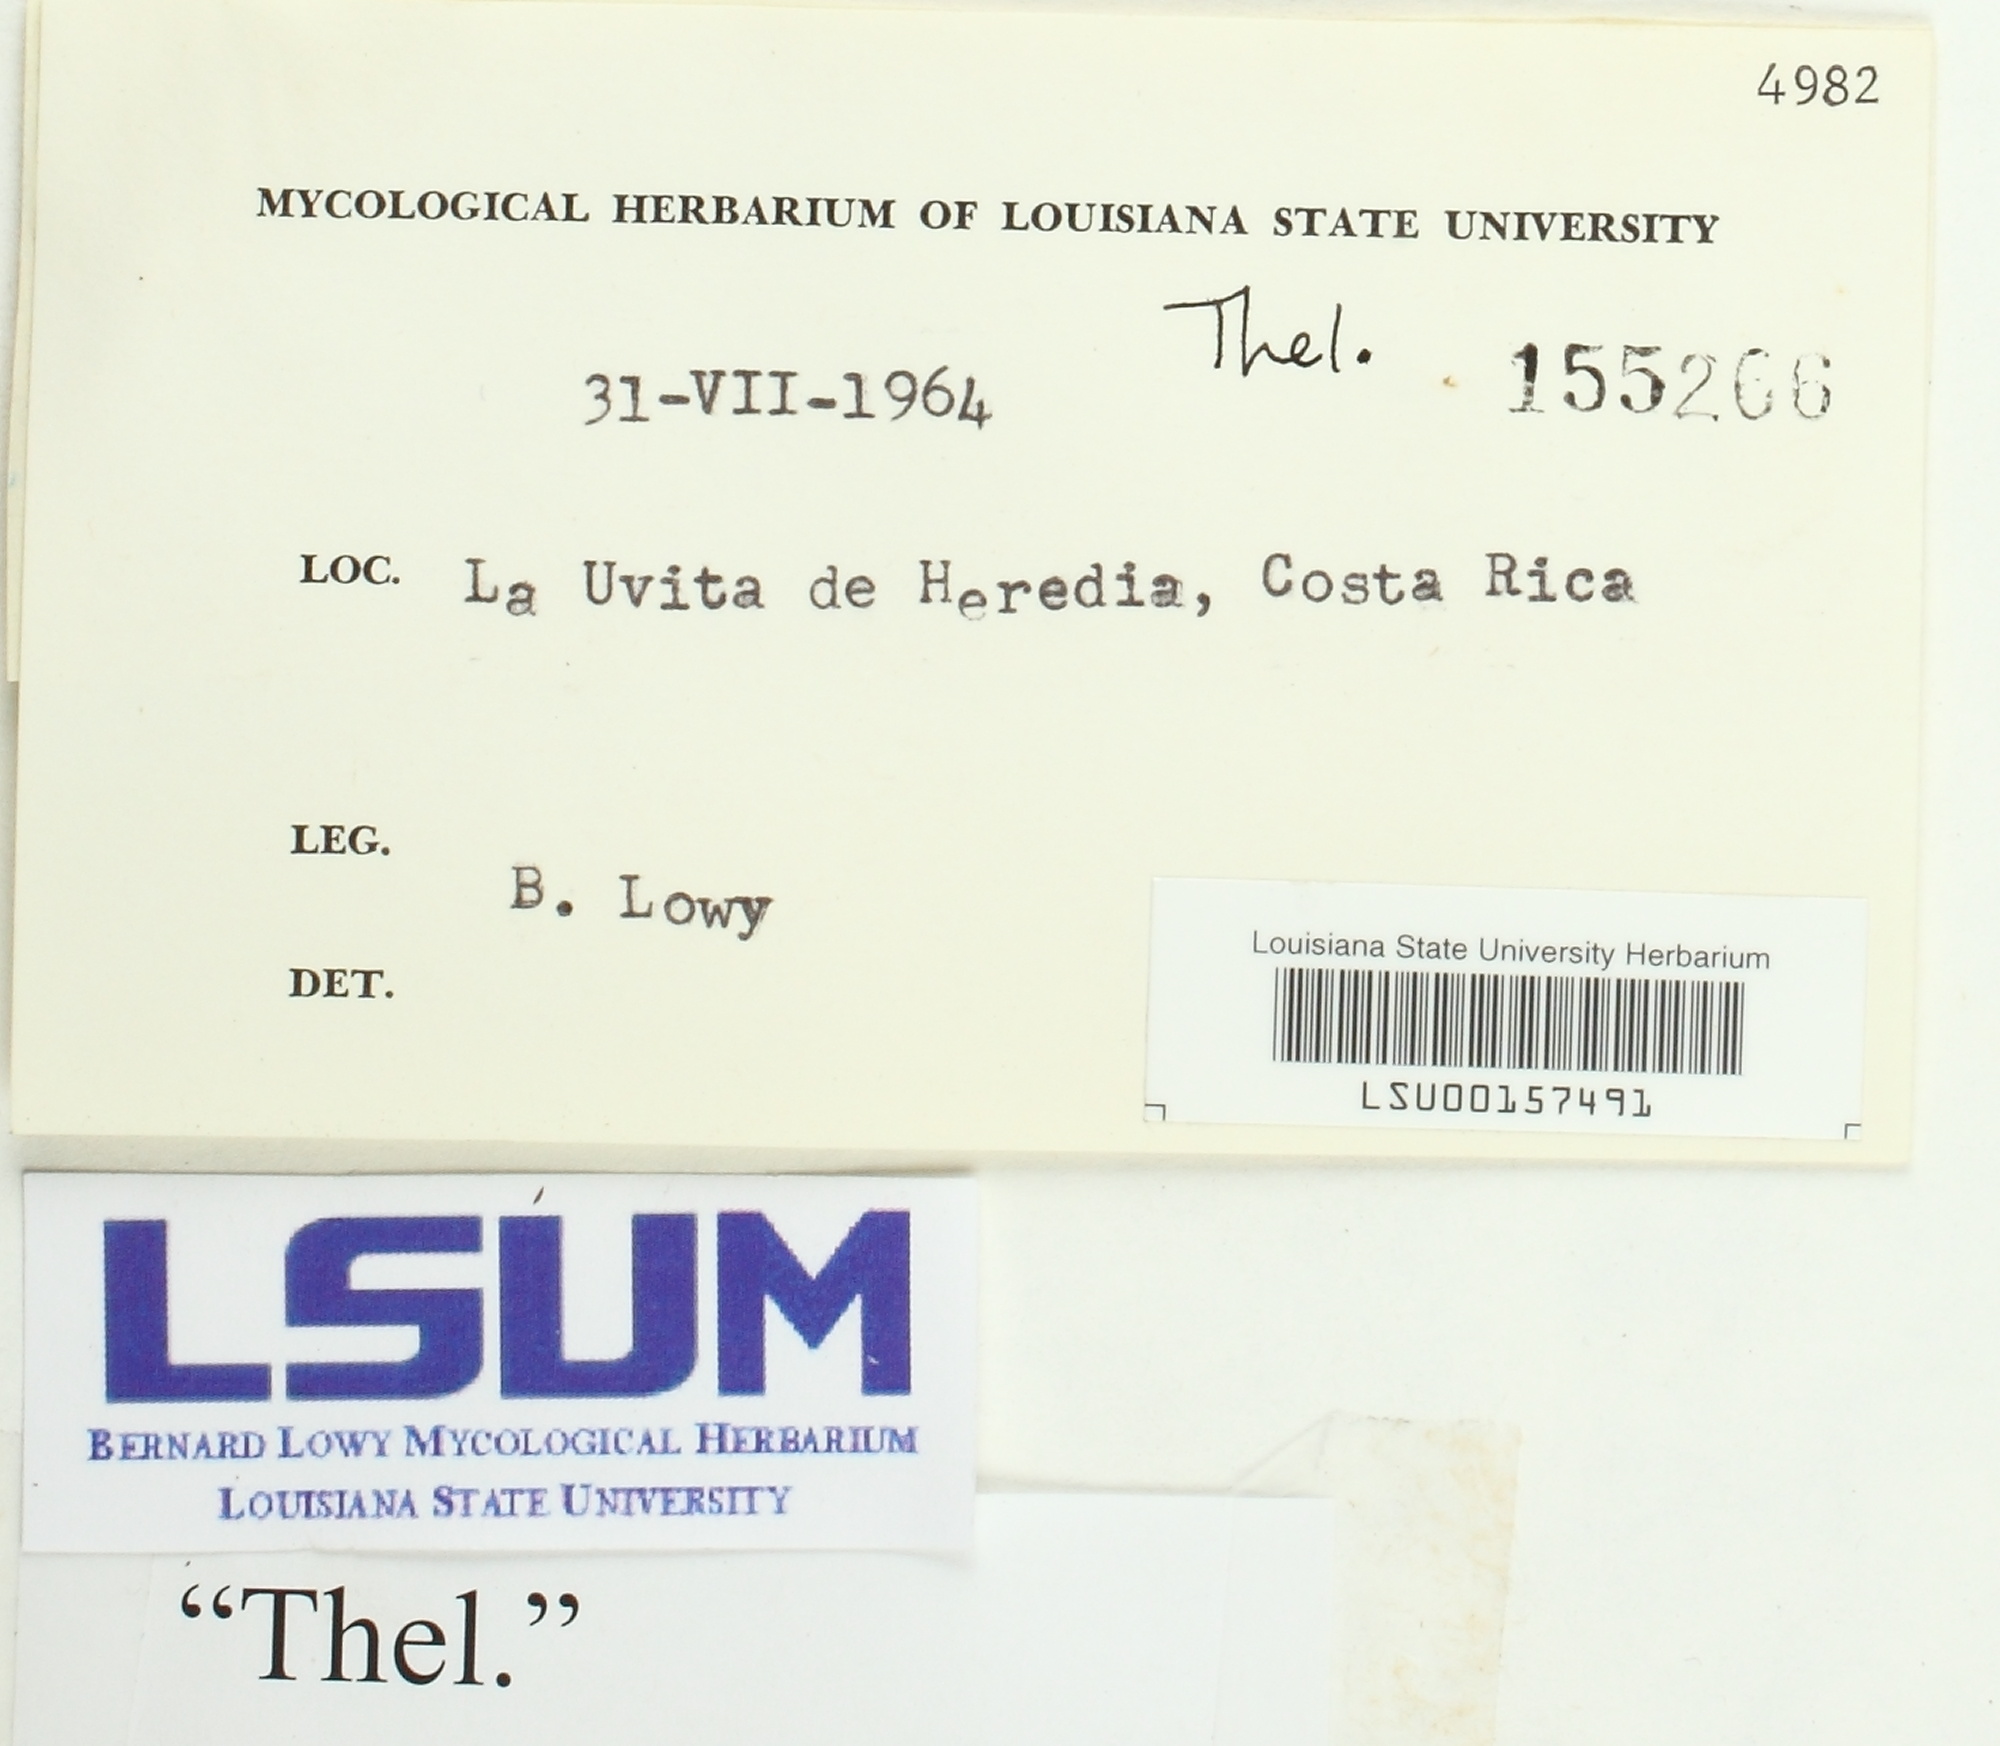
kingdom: Fungi
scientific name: Fungi
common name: Fungi
